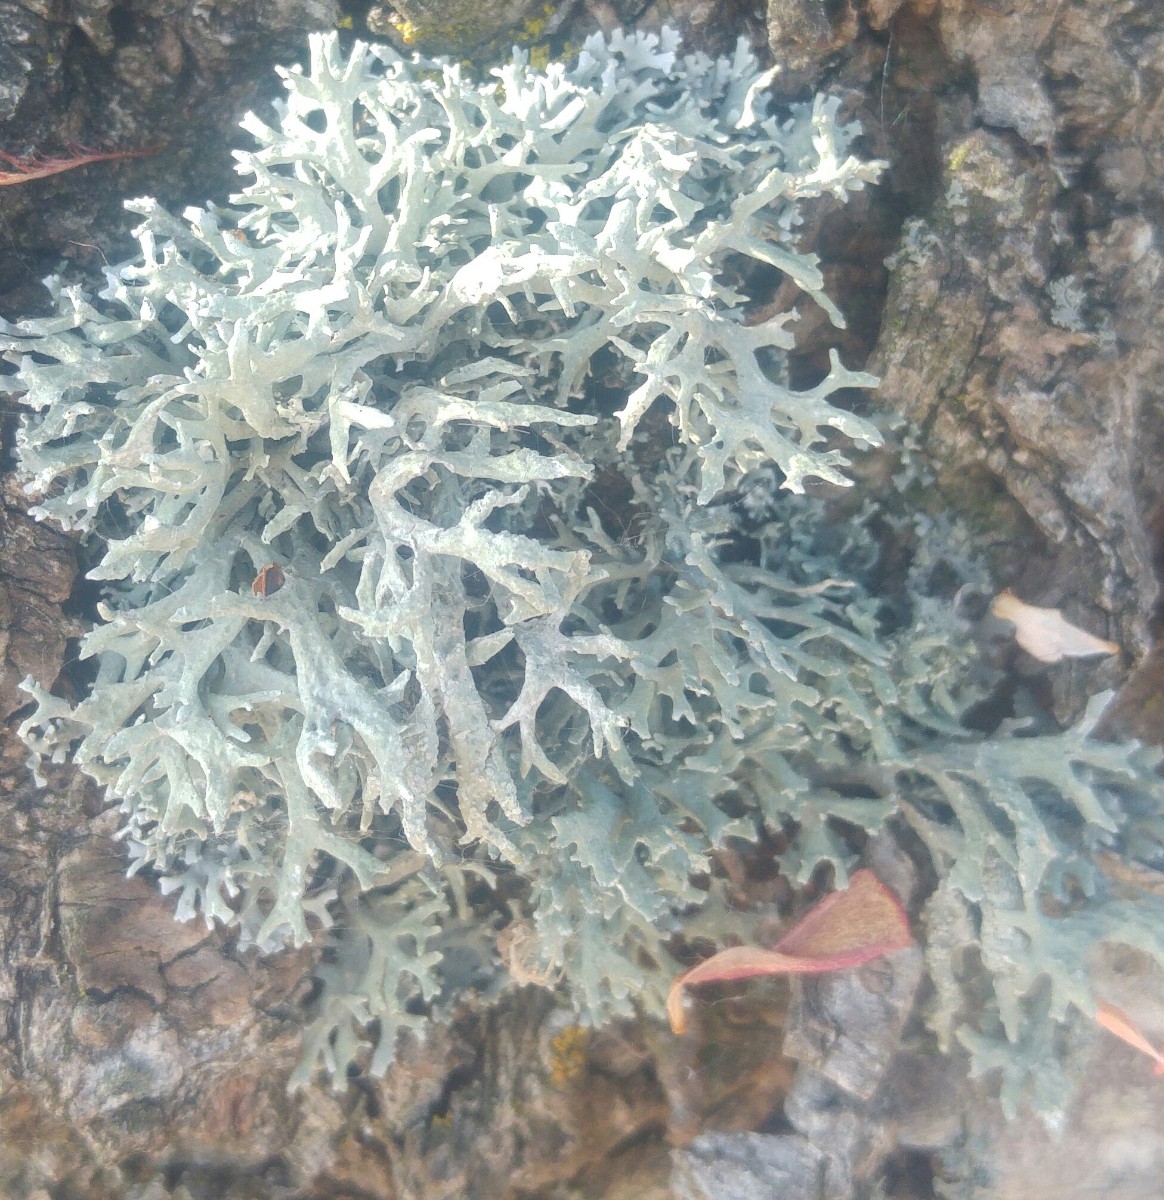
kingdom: Fungi
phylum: Ascomycota
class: Lecanoromycetes
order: Lecanorales
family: Parmeliaceae
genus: Evernia
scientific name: Evernia prunastri
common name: almindelig slåenlav
